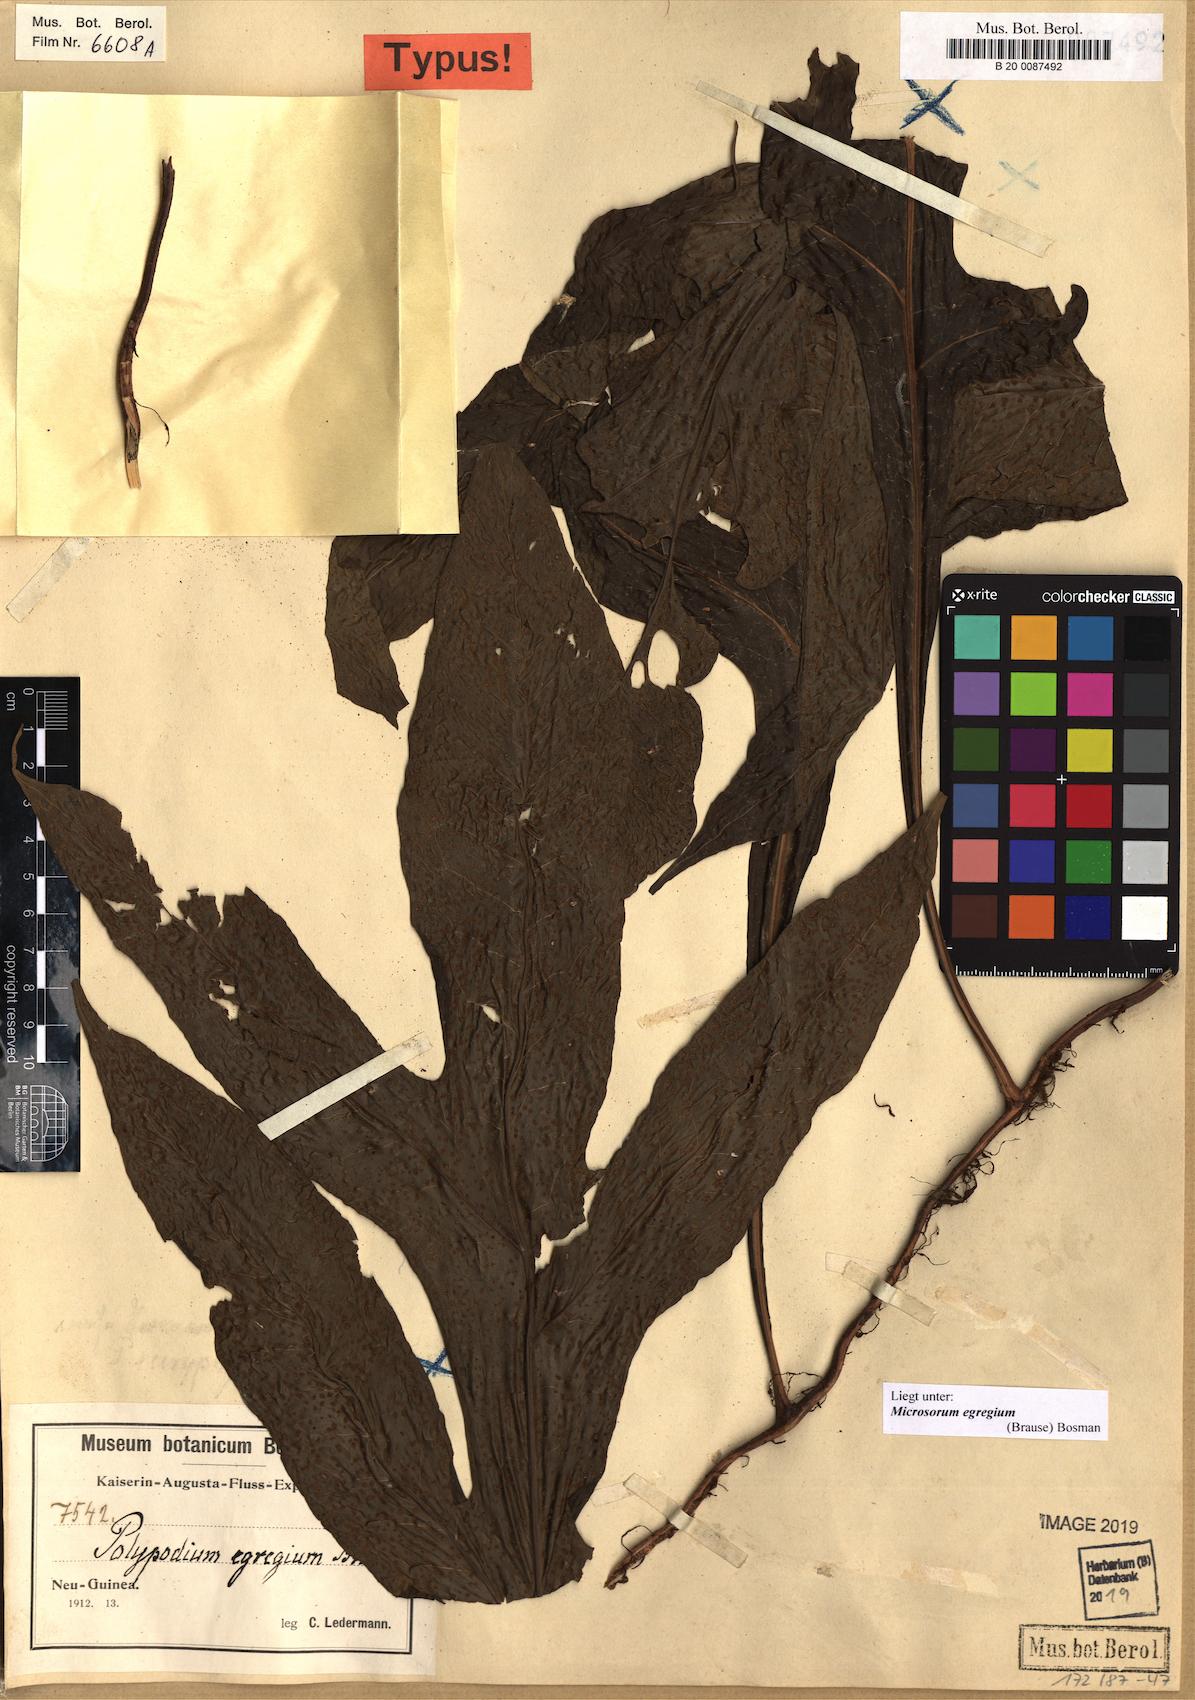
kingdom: Plantae
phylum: Tracheophyta
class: Polypodiopsida
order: Polypodiales
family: Polypodiaceae
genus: Microsorum
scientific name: Microsorum egregium
